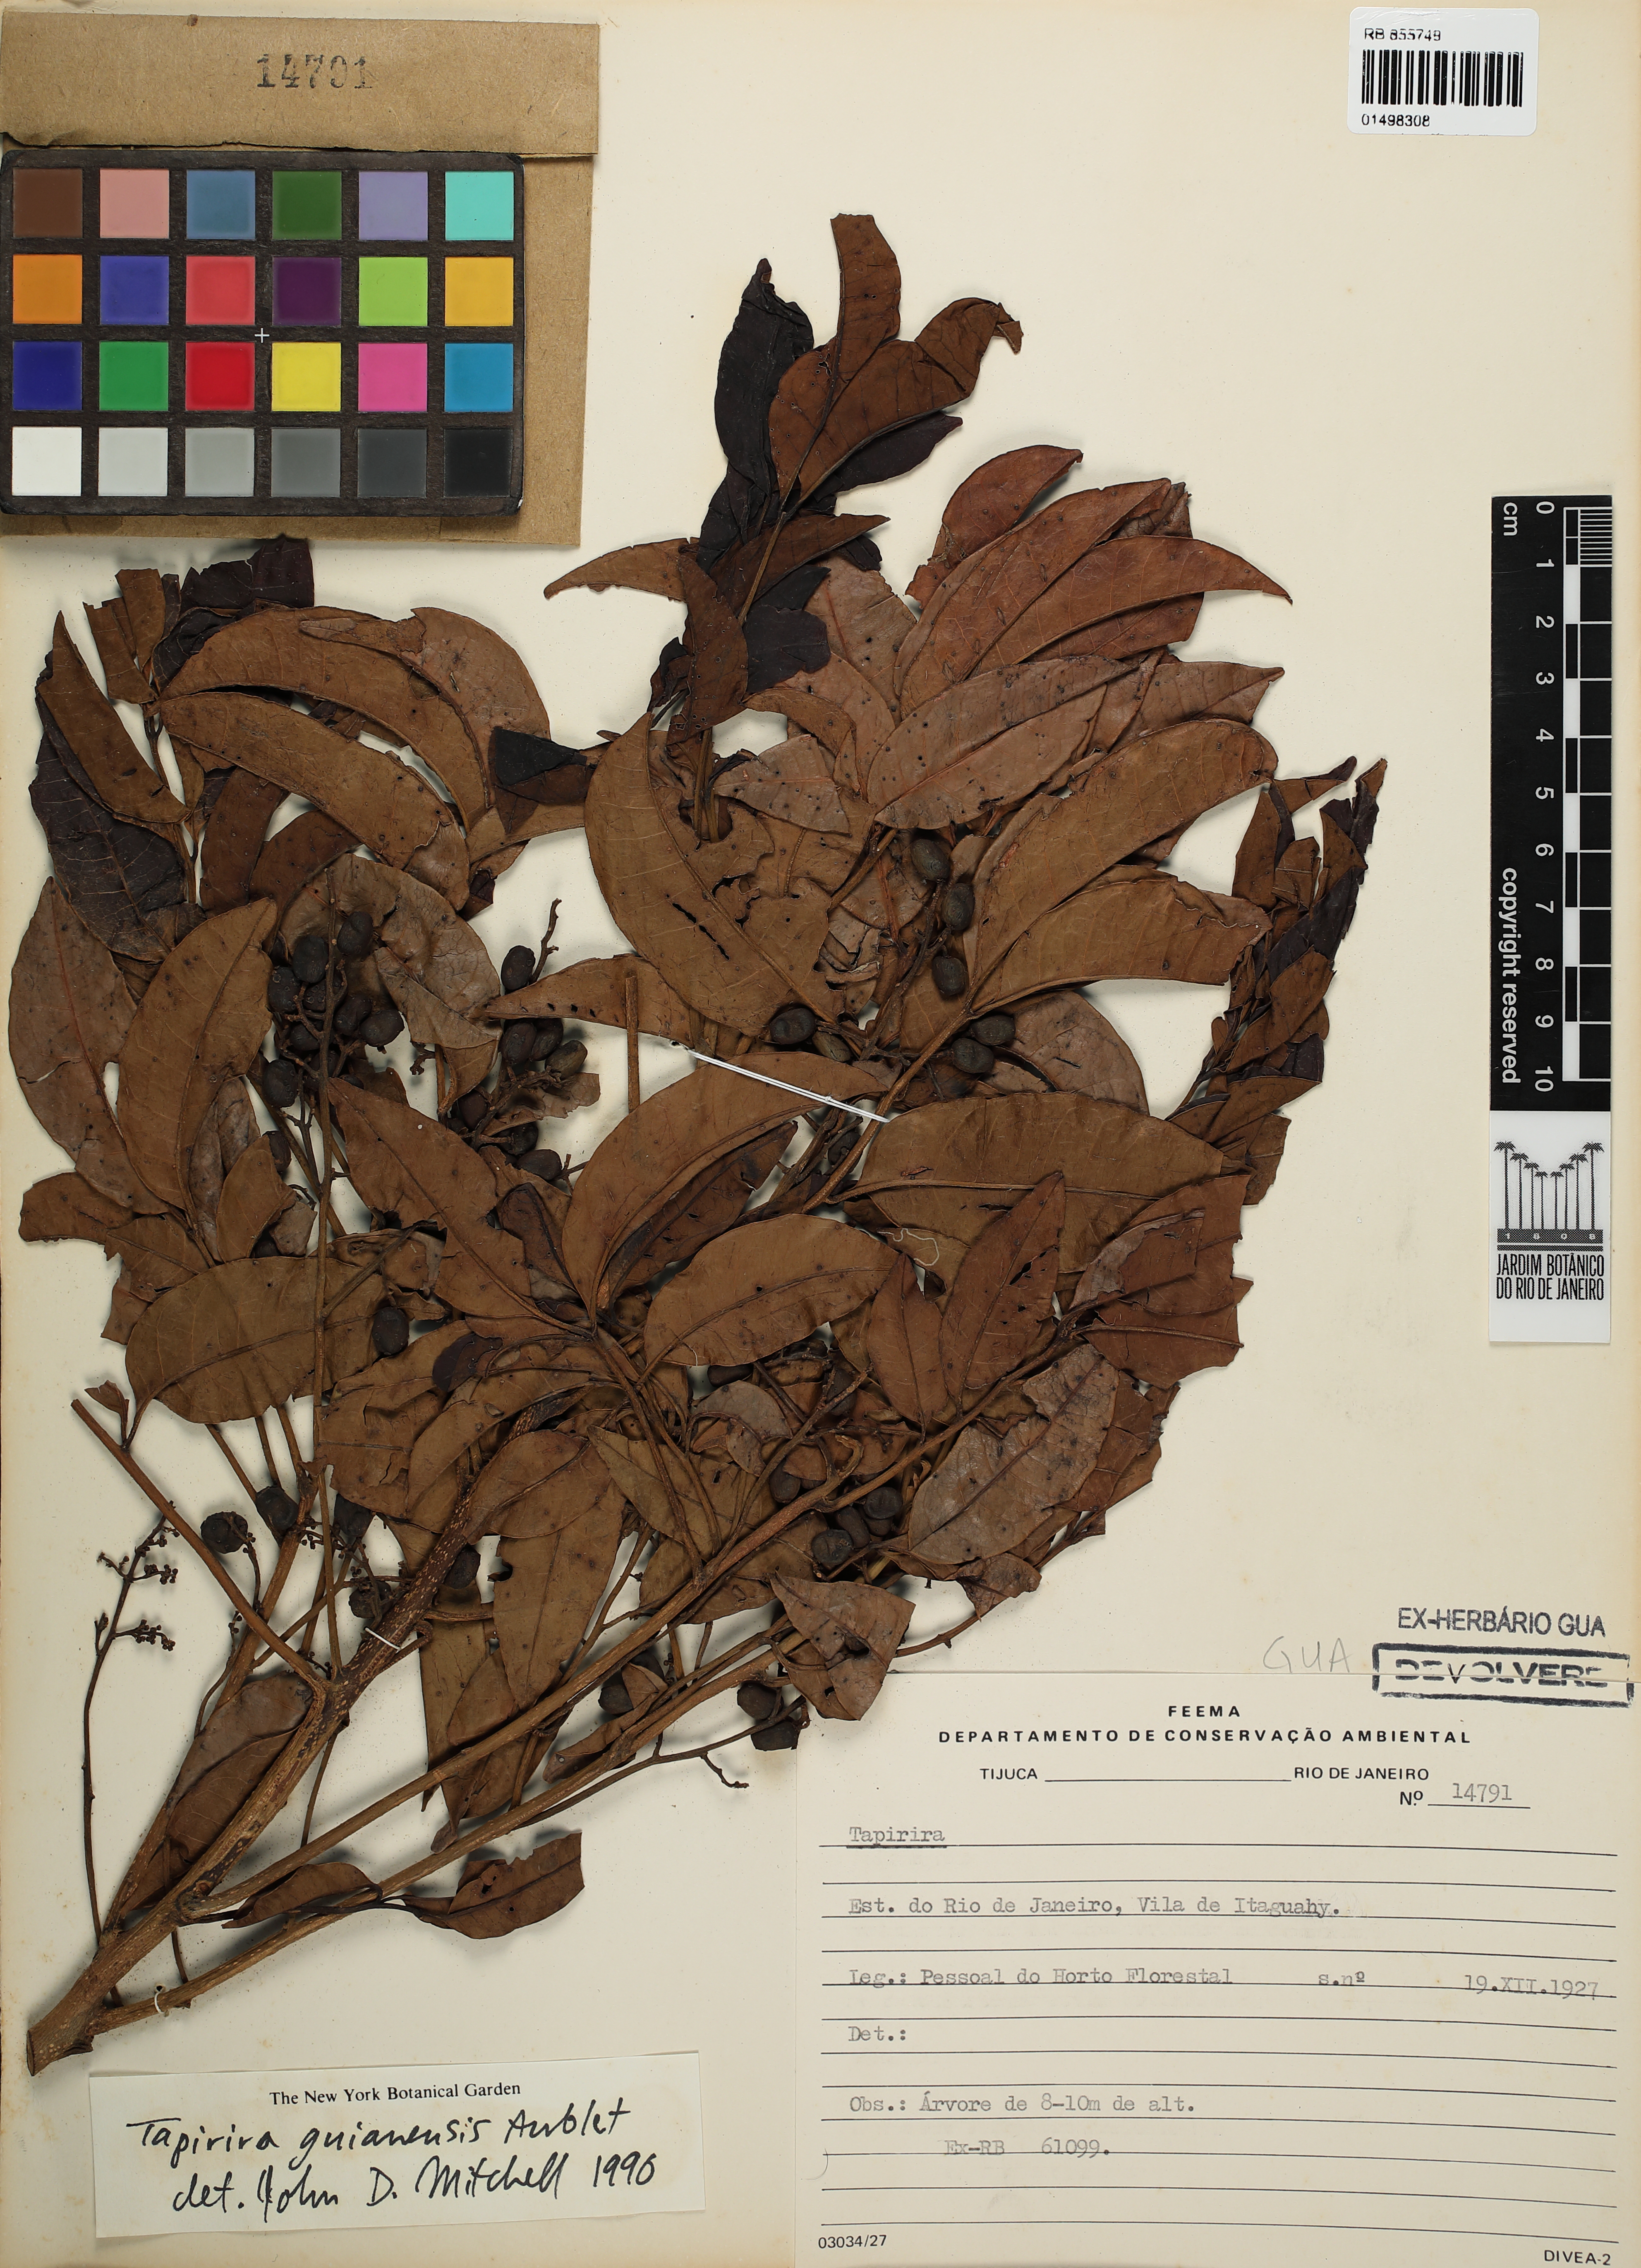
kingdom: Plantae
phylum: Tracheophyta
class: Magnoliopsida
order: Sapindales
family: Anacardiaceae
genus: Tapirira
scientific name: Tapirira guianensis
